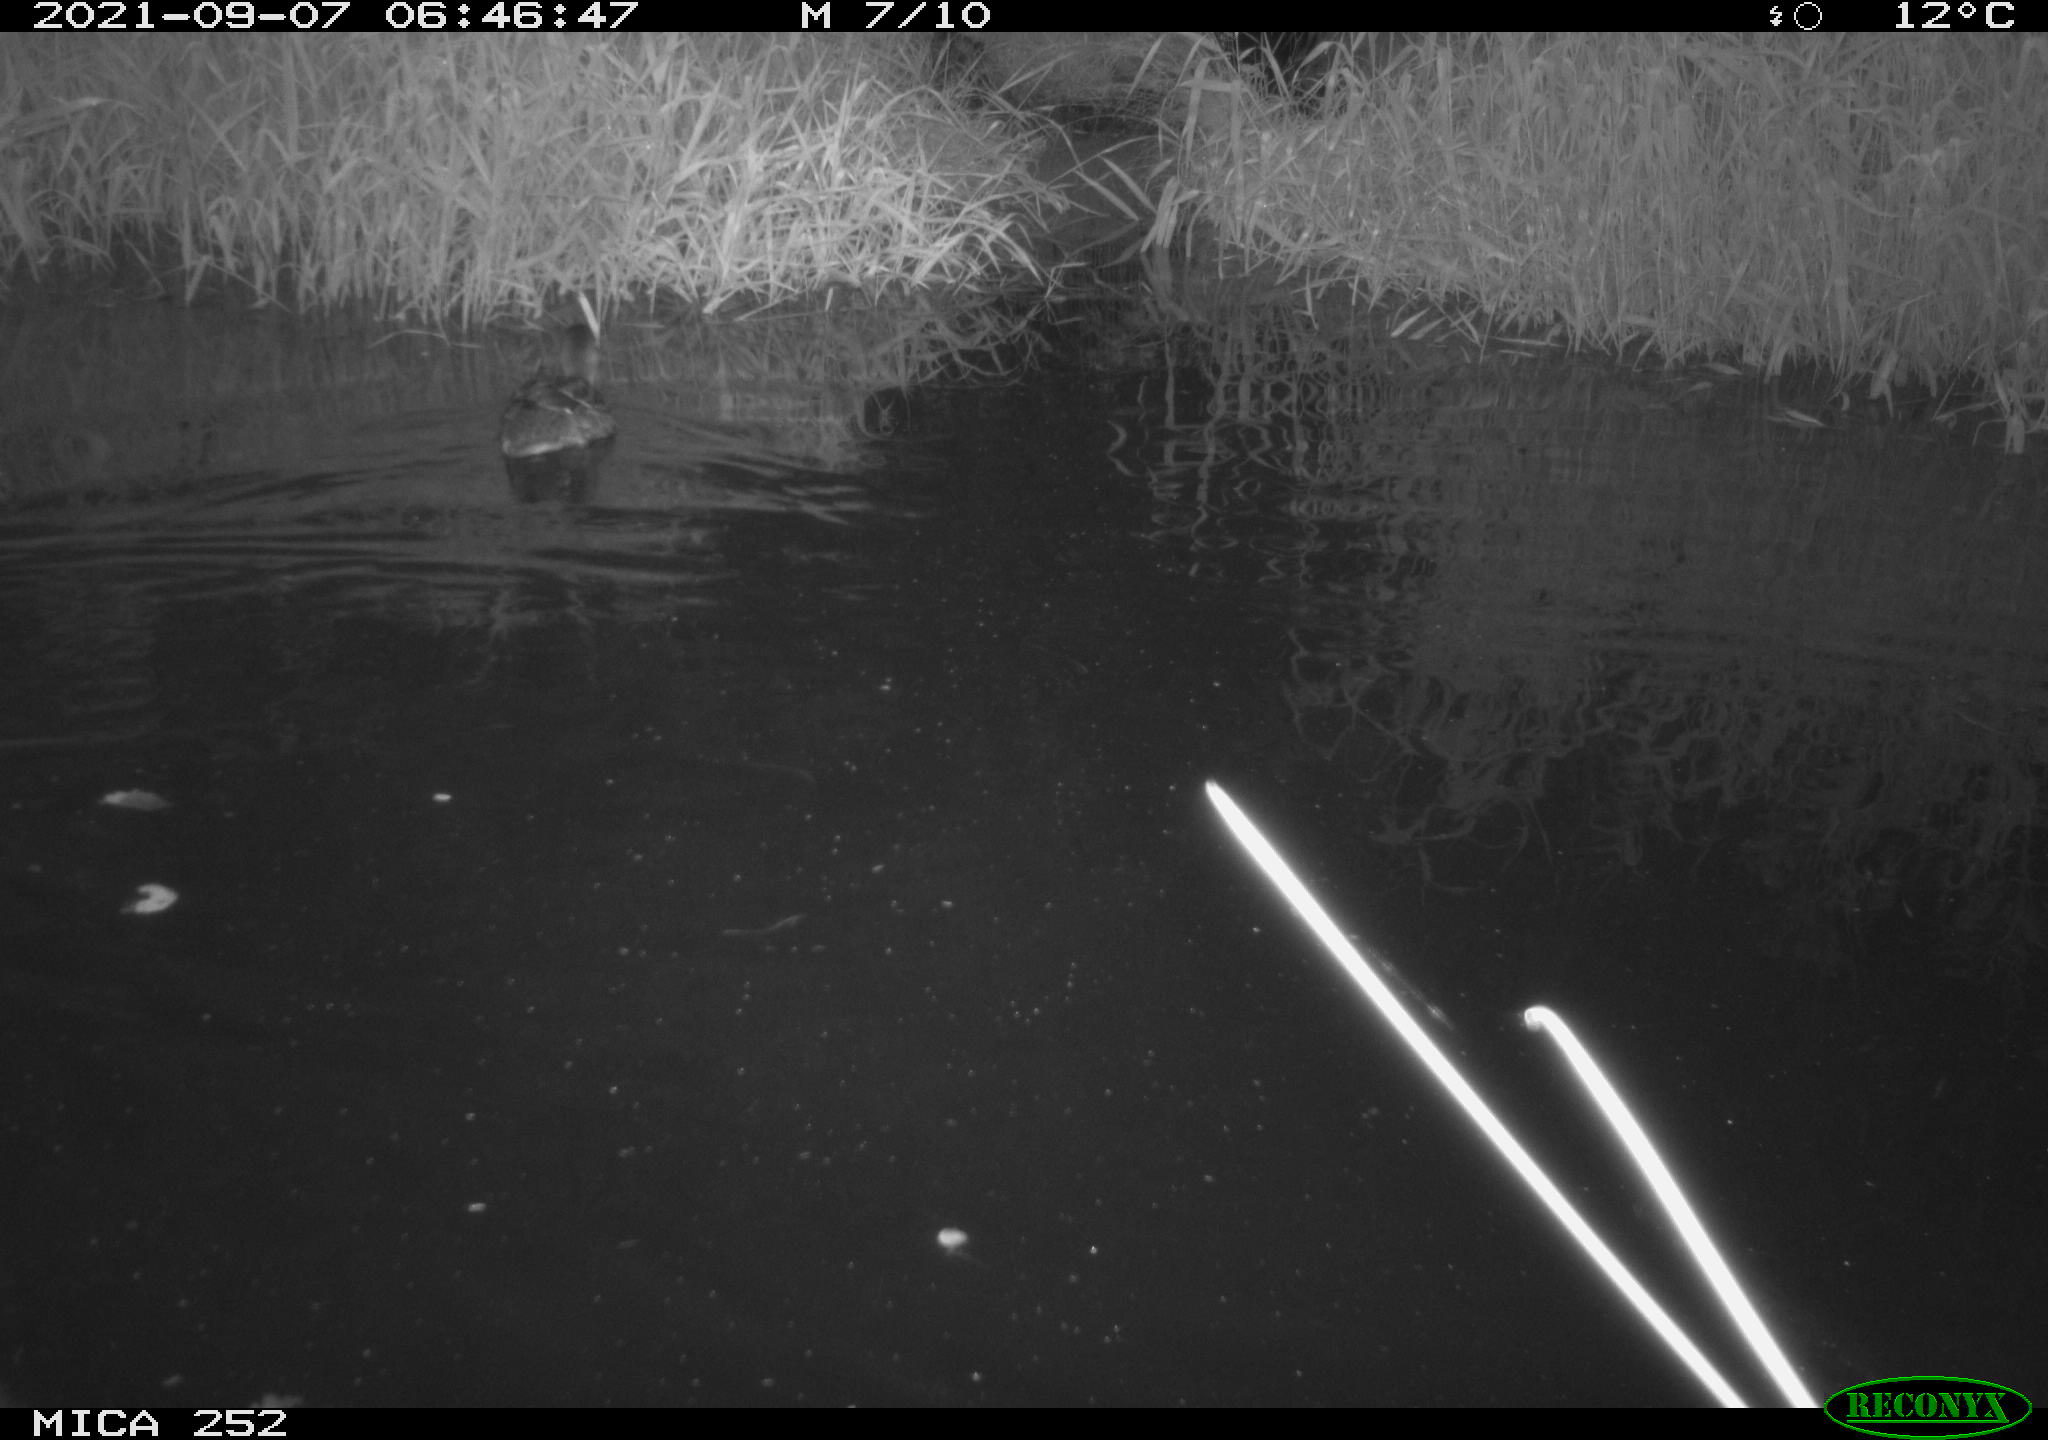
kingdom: Animalia
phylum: Chordata
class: Aves
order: Anseriformes
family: Anatidae
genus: Anas
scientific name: Anas platyrhynchos
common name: Mallard
